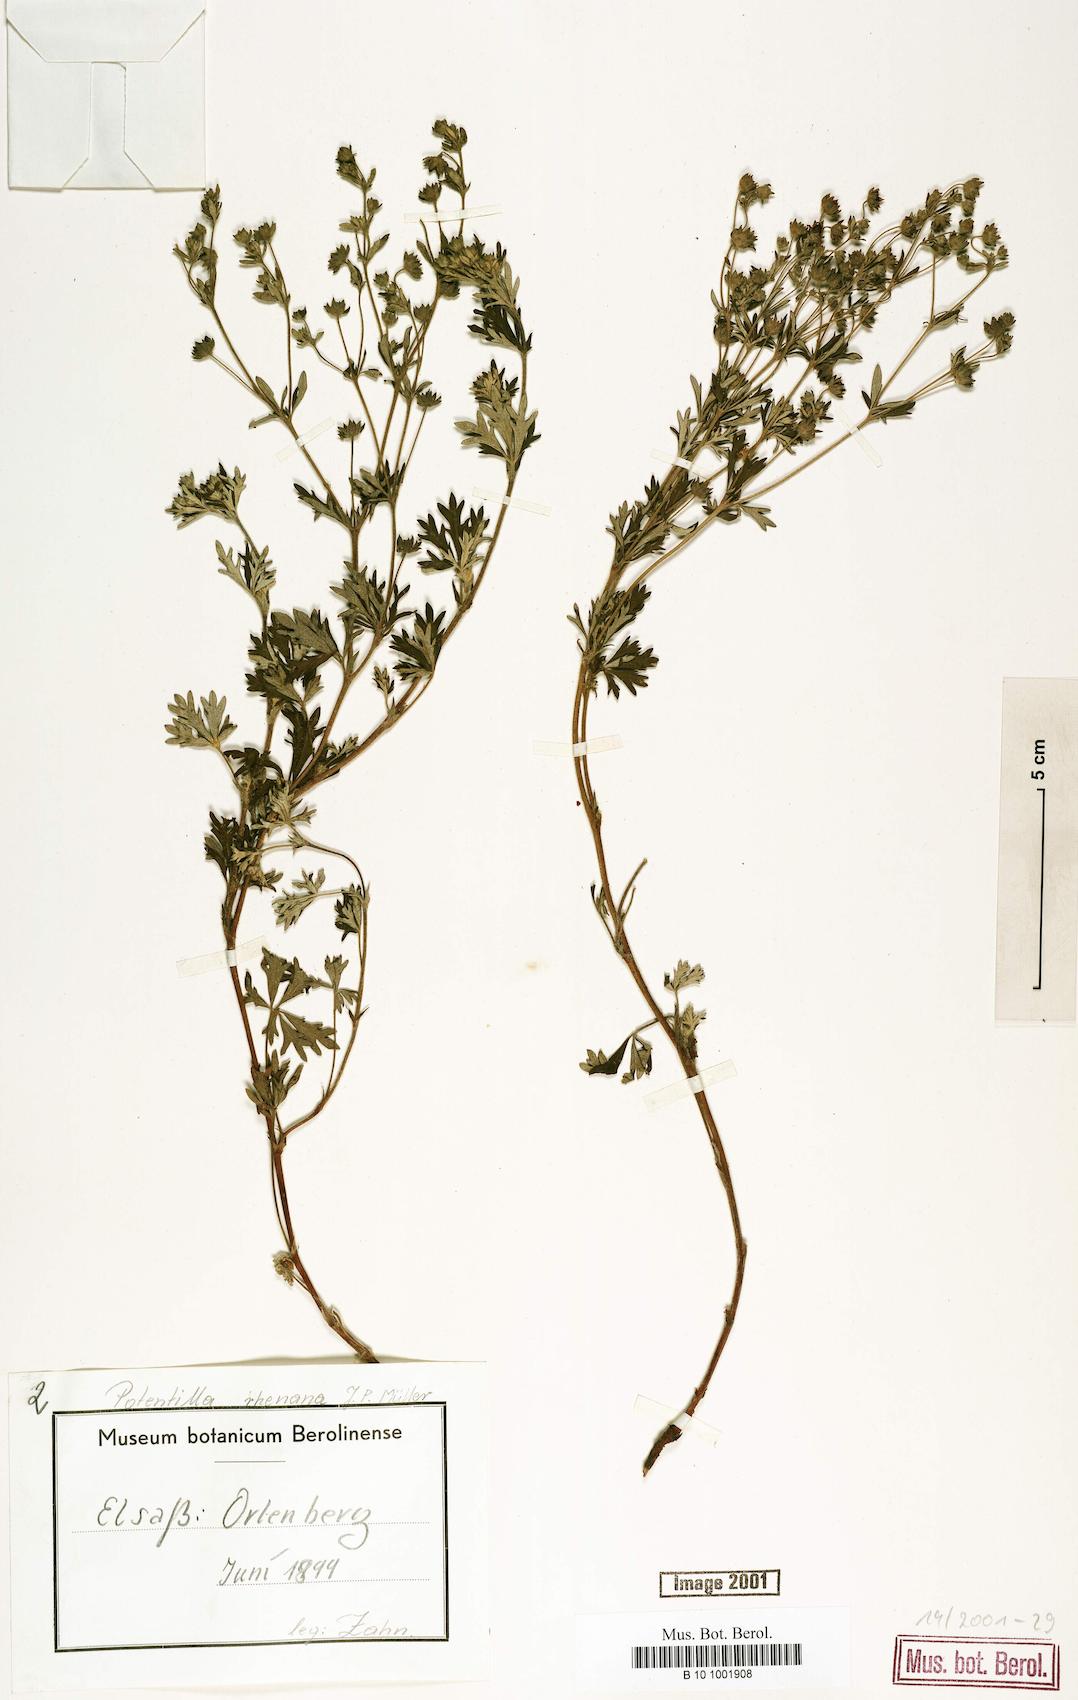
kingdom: Plantae
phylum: Tracheophyta
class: Magnoliopsida
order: Rosales
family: Rosaceae
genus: Potentilla
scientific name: Potentilla rhenana
